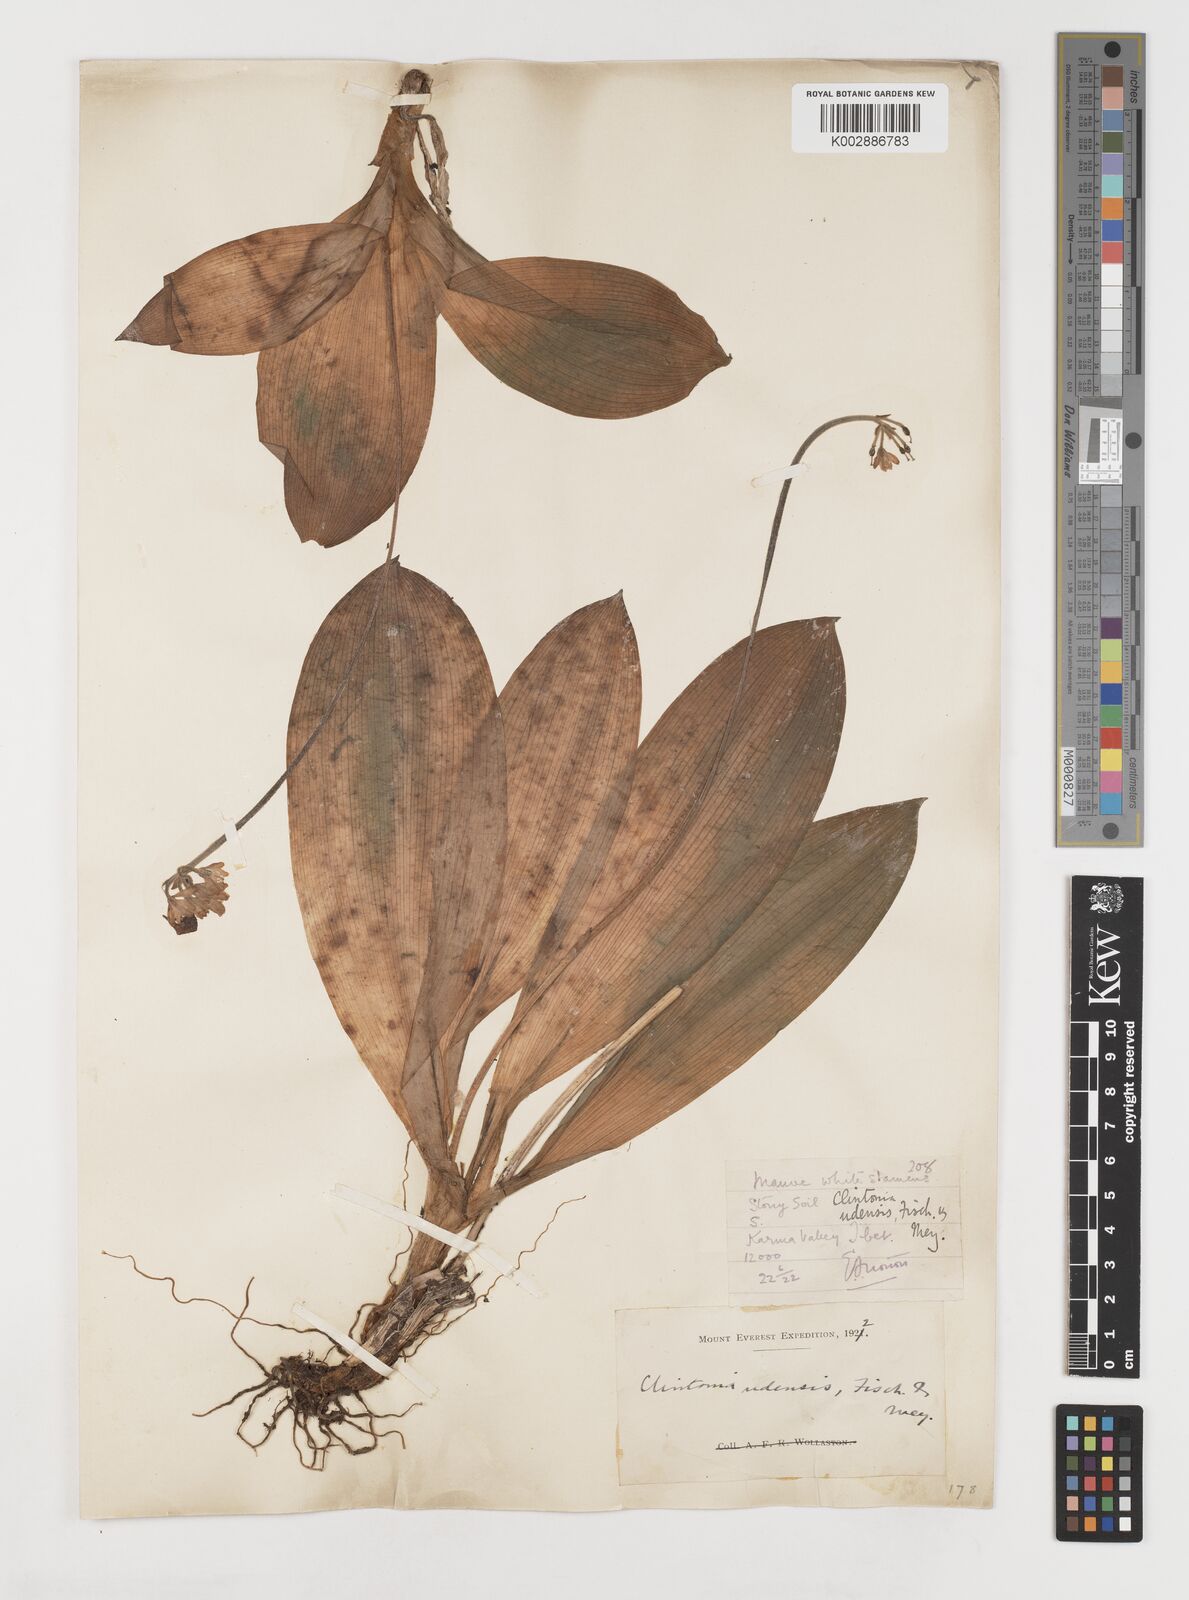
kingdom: Plantae
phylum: Tracheophyta
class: Liliopsida
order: Liliales
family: Liliaceae
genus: Clintonia
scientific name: Clintonia udensis
